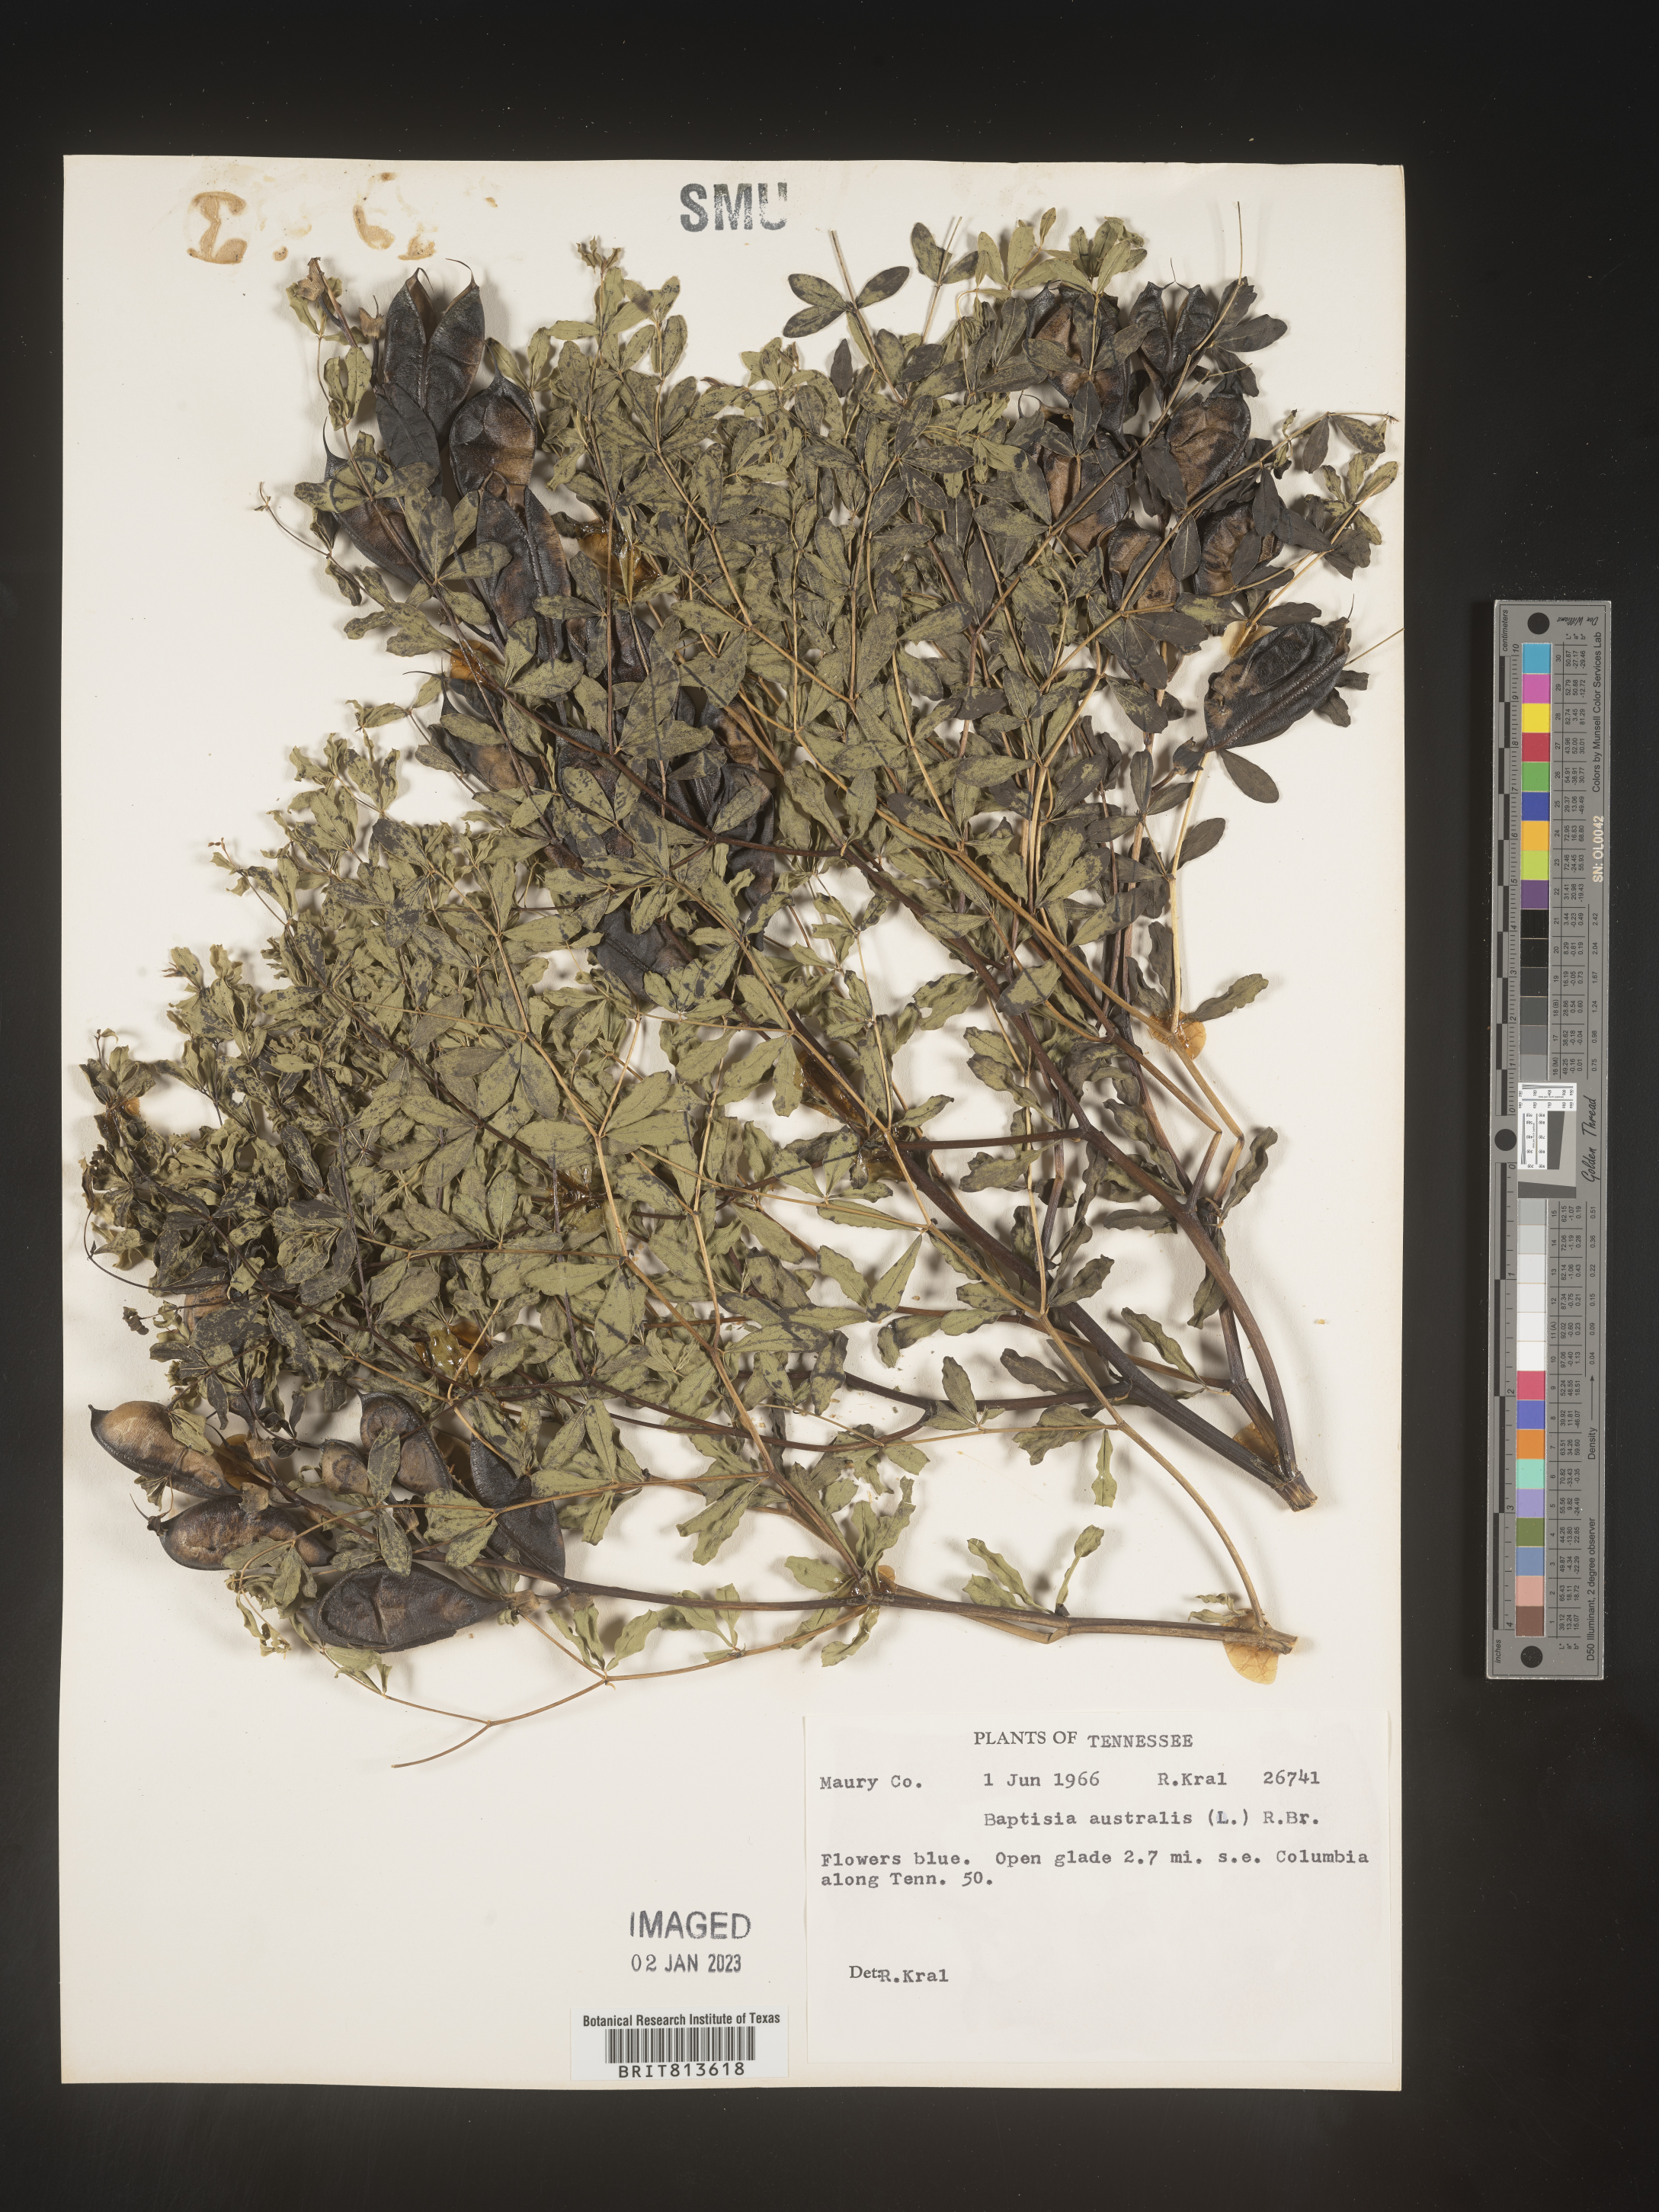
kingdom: Plantae
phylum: Tracheophyta
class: Magnoliopsida
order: Fabales
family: Fabaceae
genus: Baptisia
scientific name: Baptisia australis
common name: Blue false indigo
